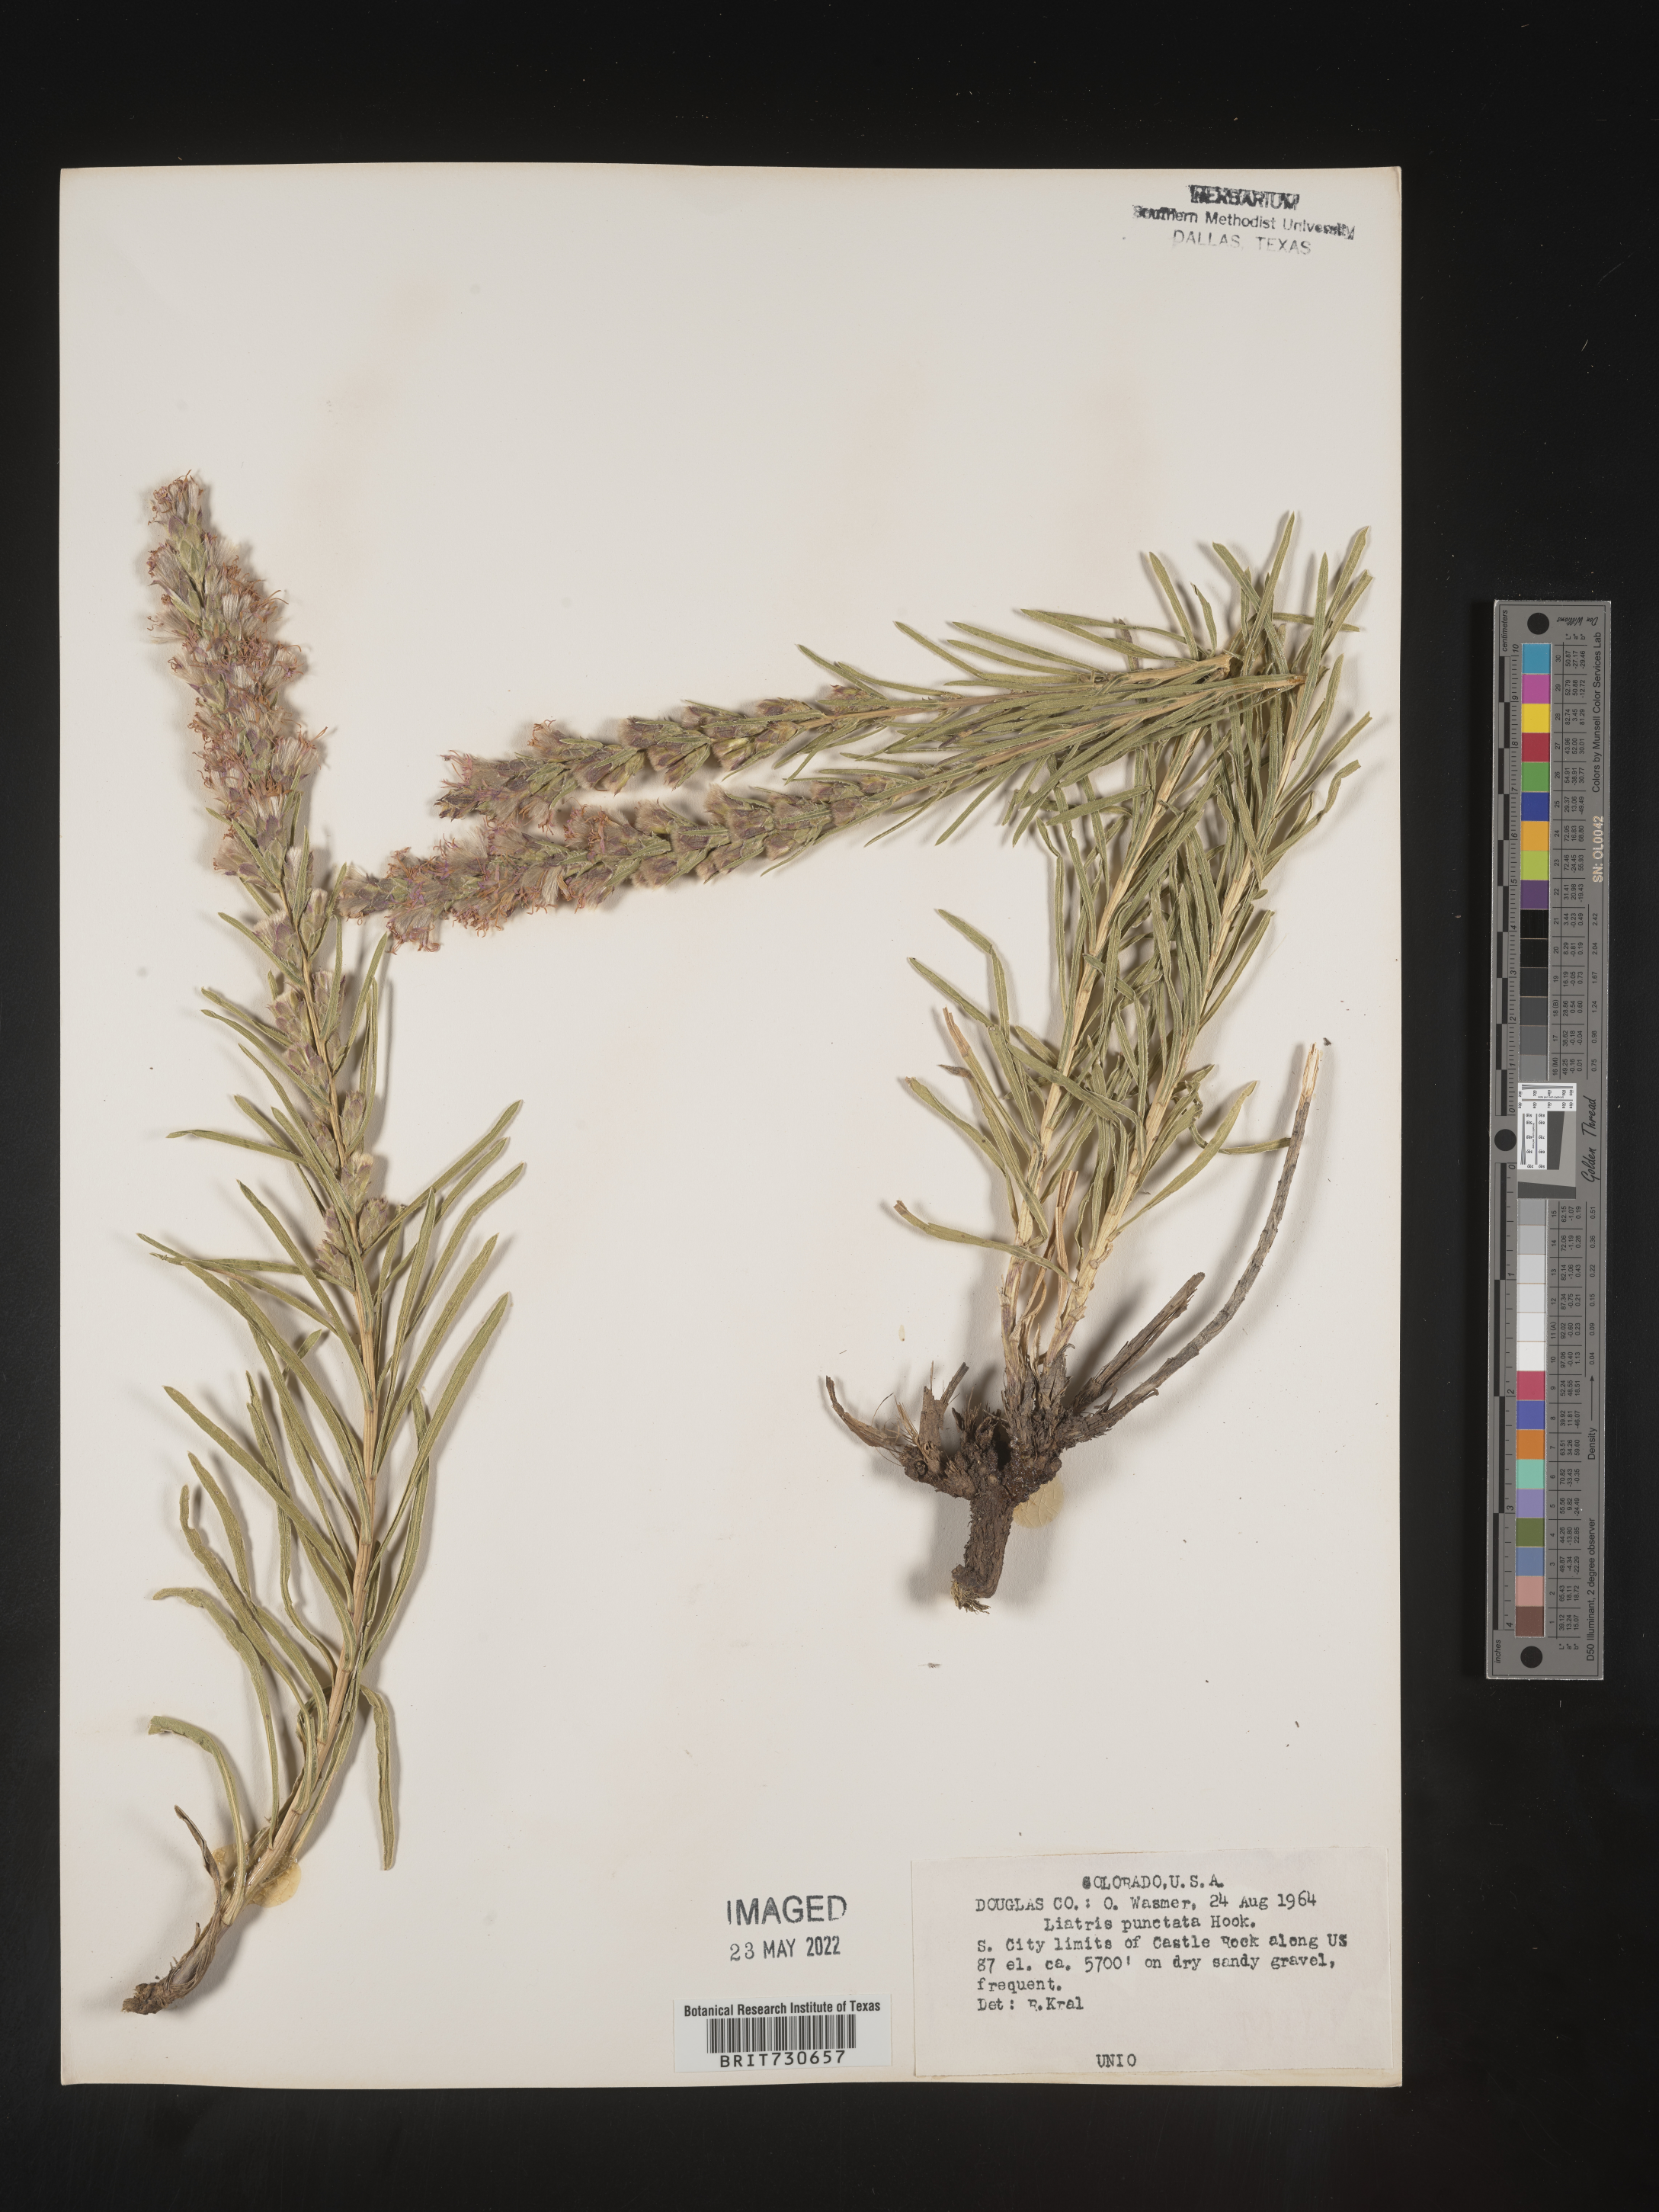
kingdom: Plantae
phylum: Tracheophyta
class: Magnoliopsida
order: Asterales
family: Asteraceae
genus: Liatris
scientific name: Liatris punctata
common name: Dotted gayfeather
